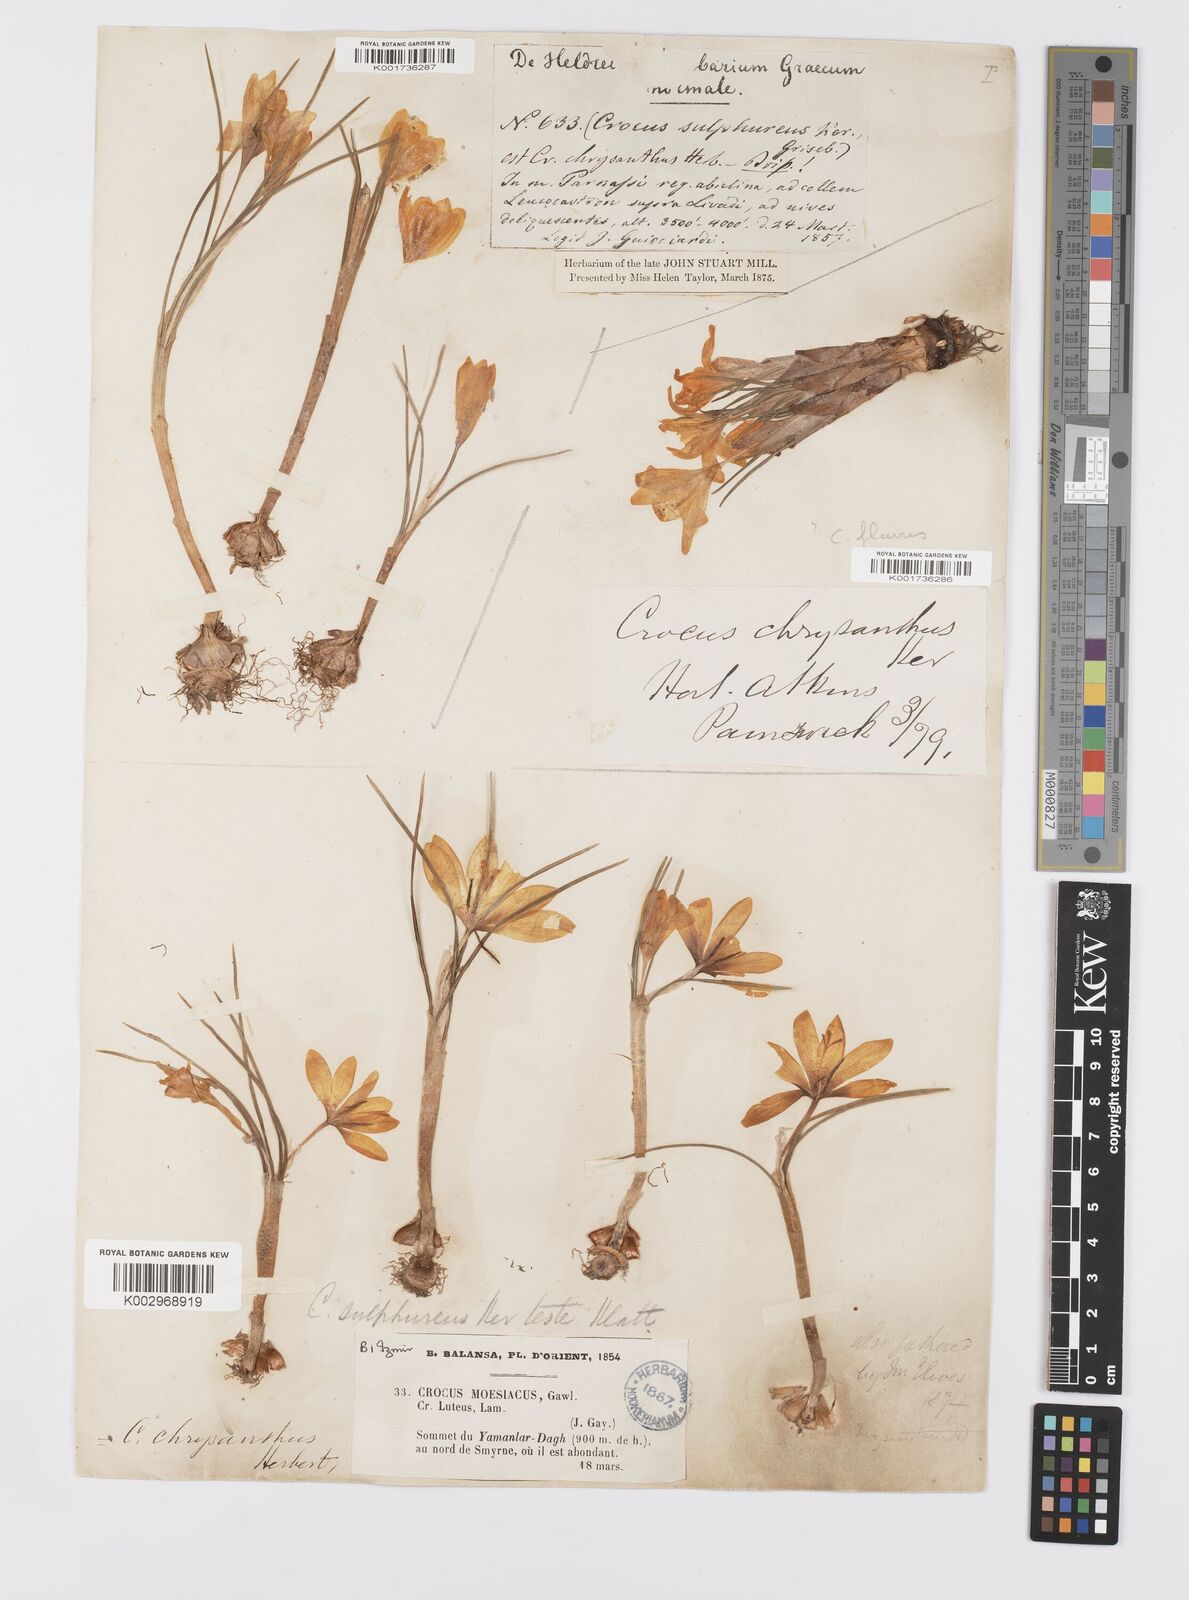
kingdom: Plantae
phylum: Tracheophyta
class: Liliopsida
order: Asparagales
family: Iridaceae
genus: Crocus
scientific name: Crocus
